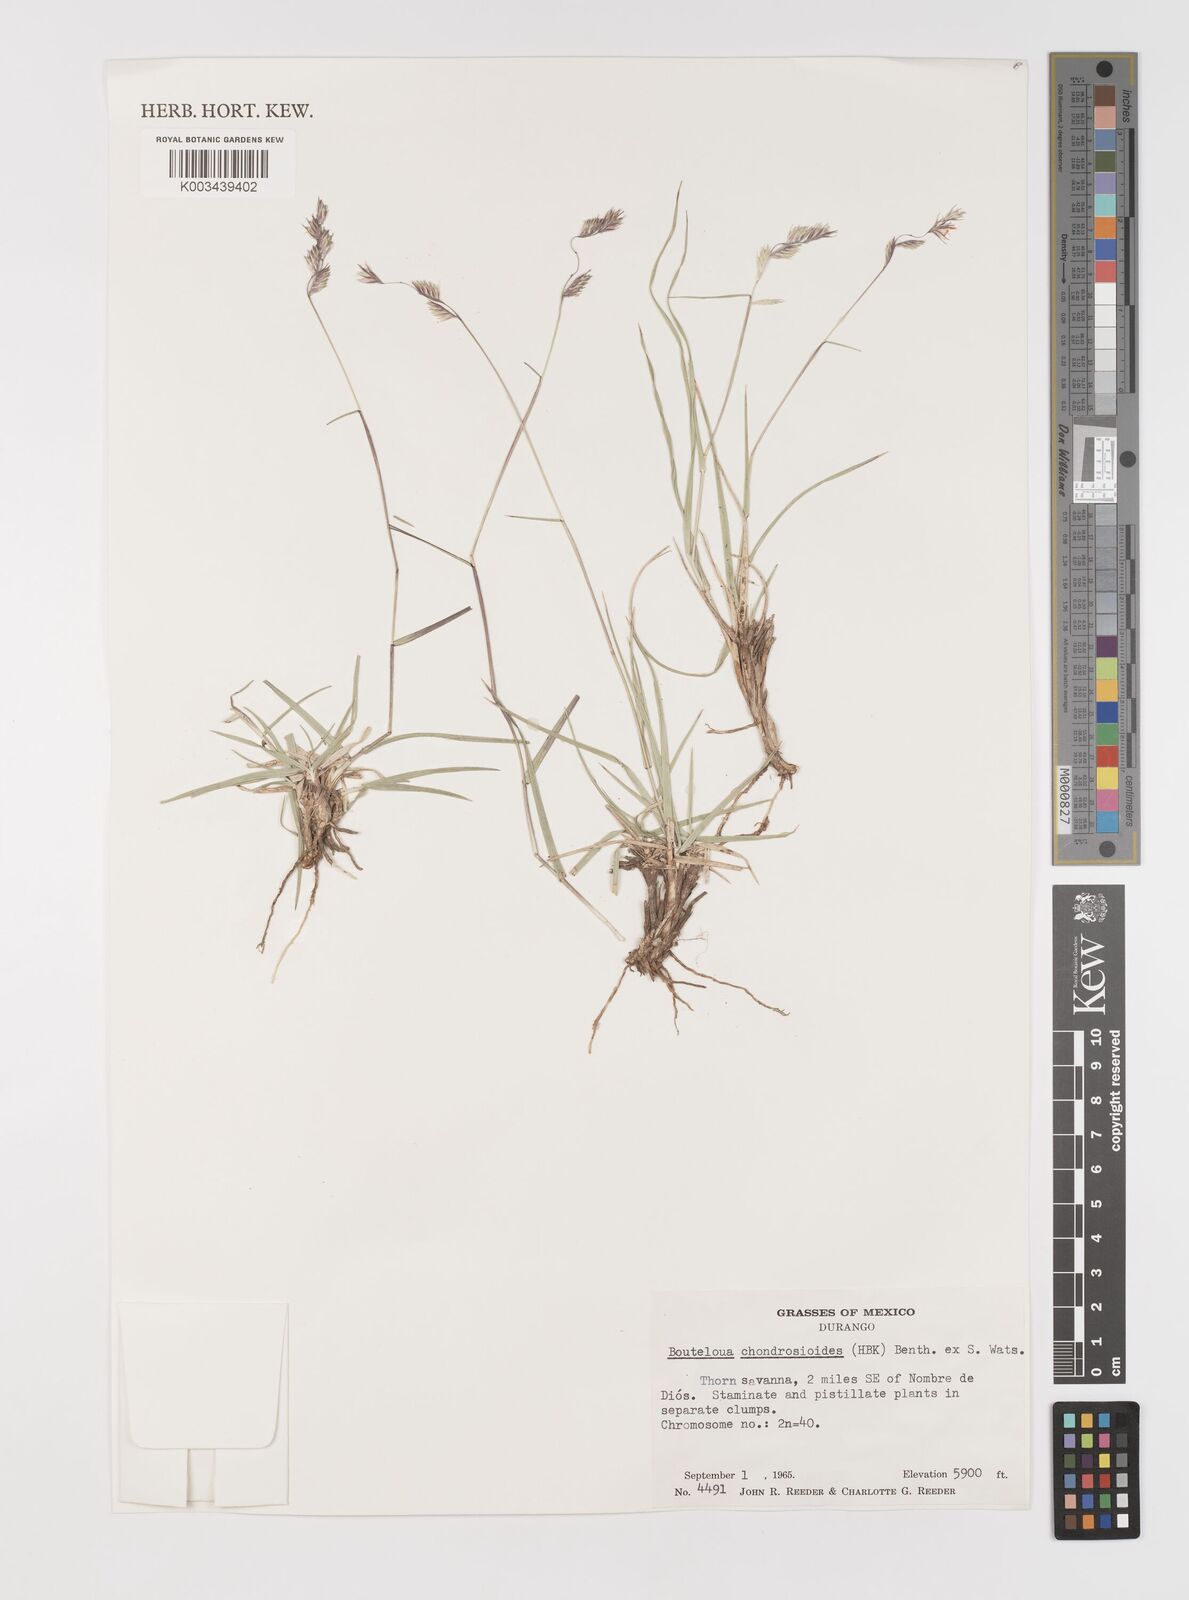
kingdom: Plantae
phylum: Tracheophyta
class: Liliopsida
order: Poales
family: Poaceae
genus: Bouteloua
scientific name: Bouteloua chondrosioides
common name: Sprucetop grama
